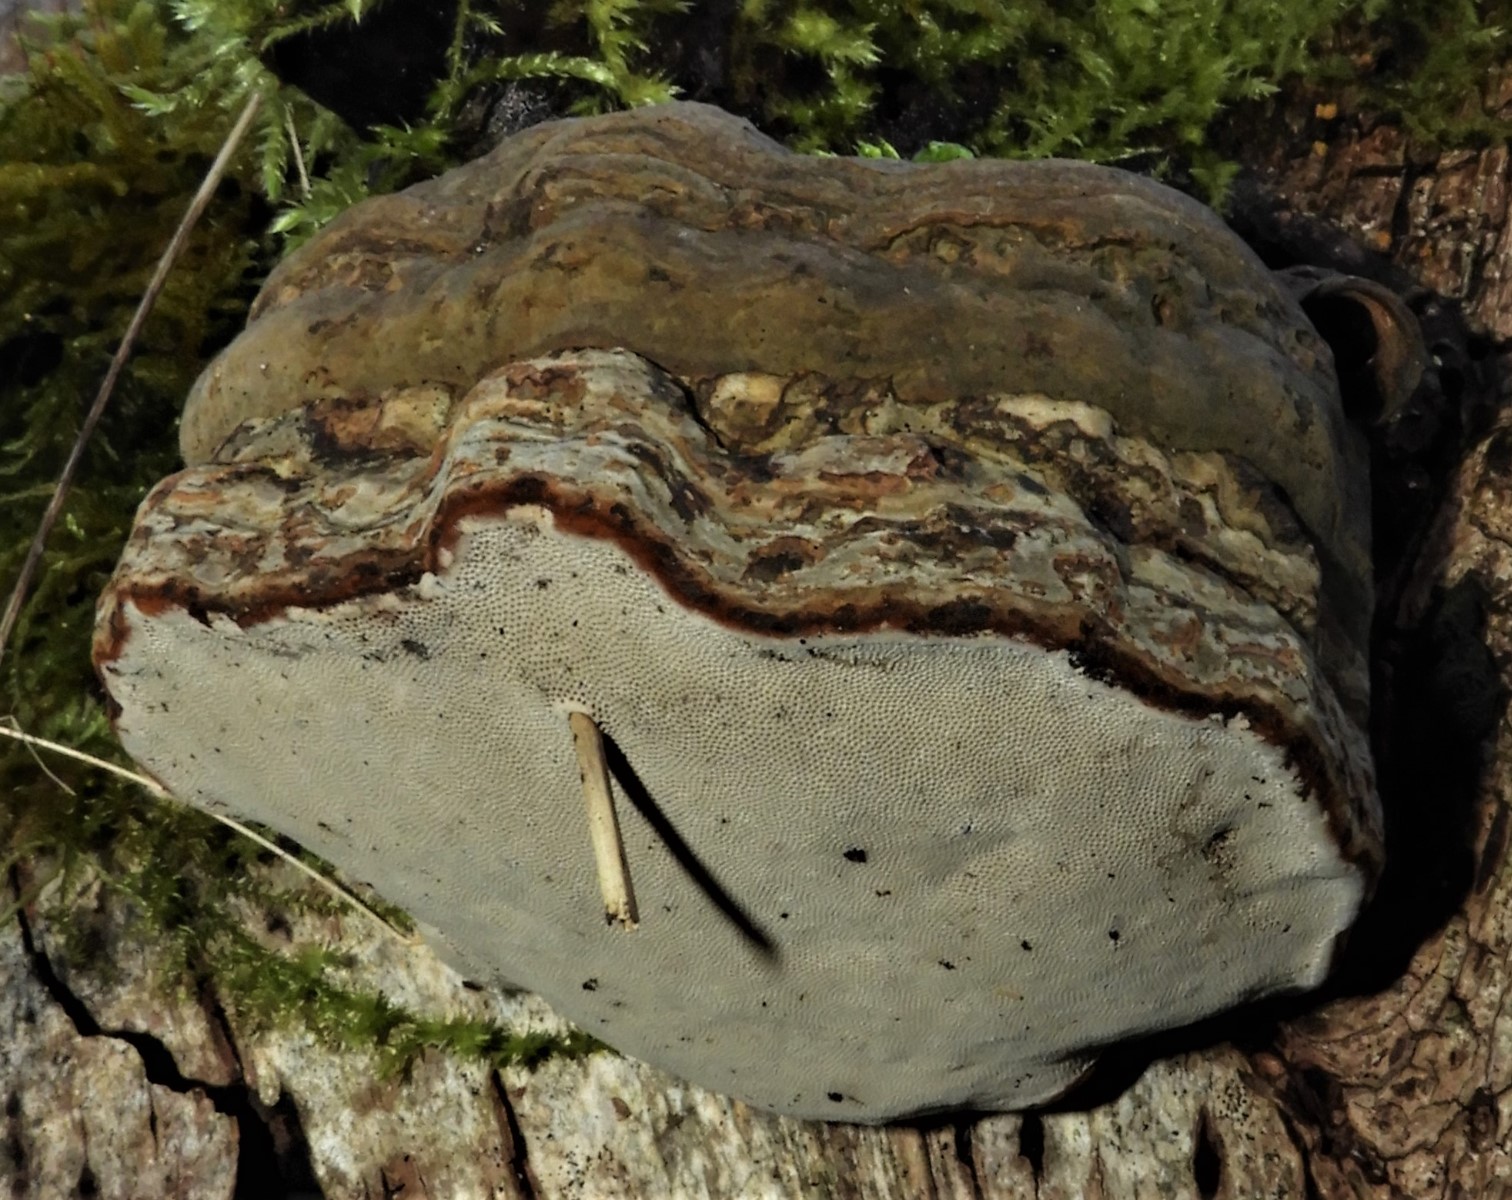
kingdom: Fungi
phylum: Basidiomycota
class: Agaricomycetes
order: Polyporales
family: Polyporaceae
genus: Fomes
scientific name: Fomes fomentarius
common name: tøndersvamp
